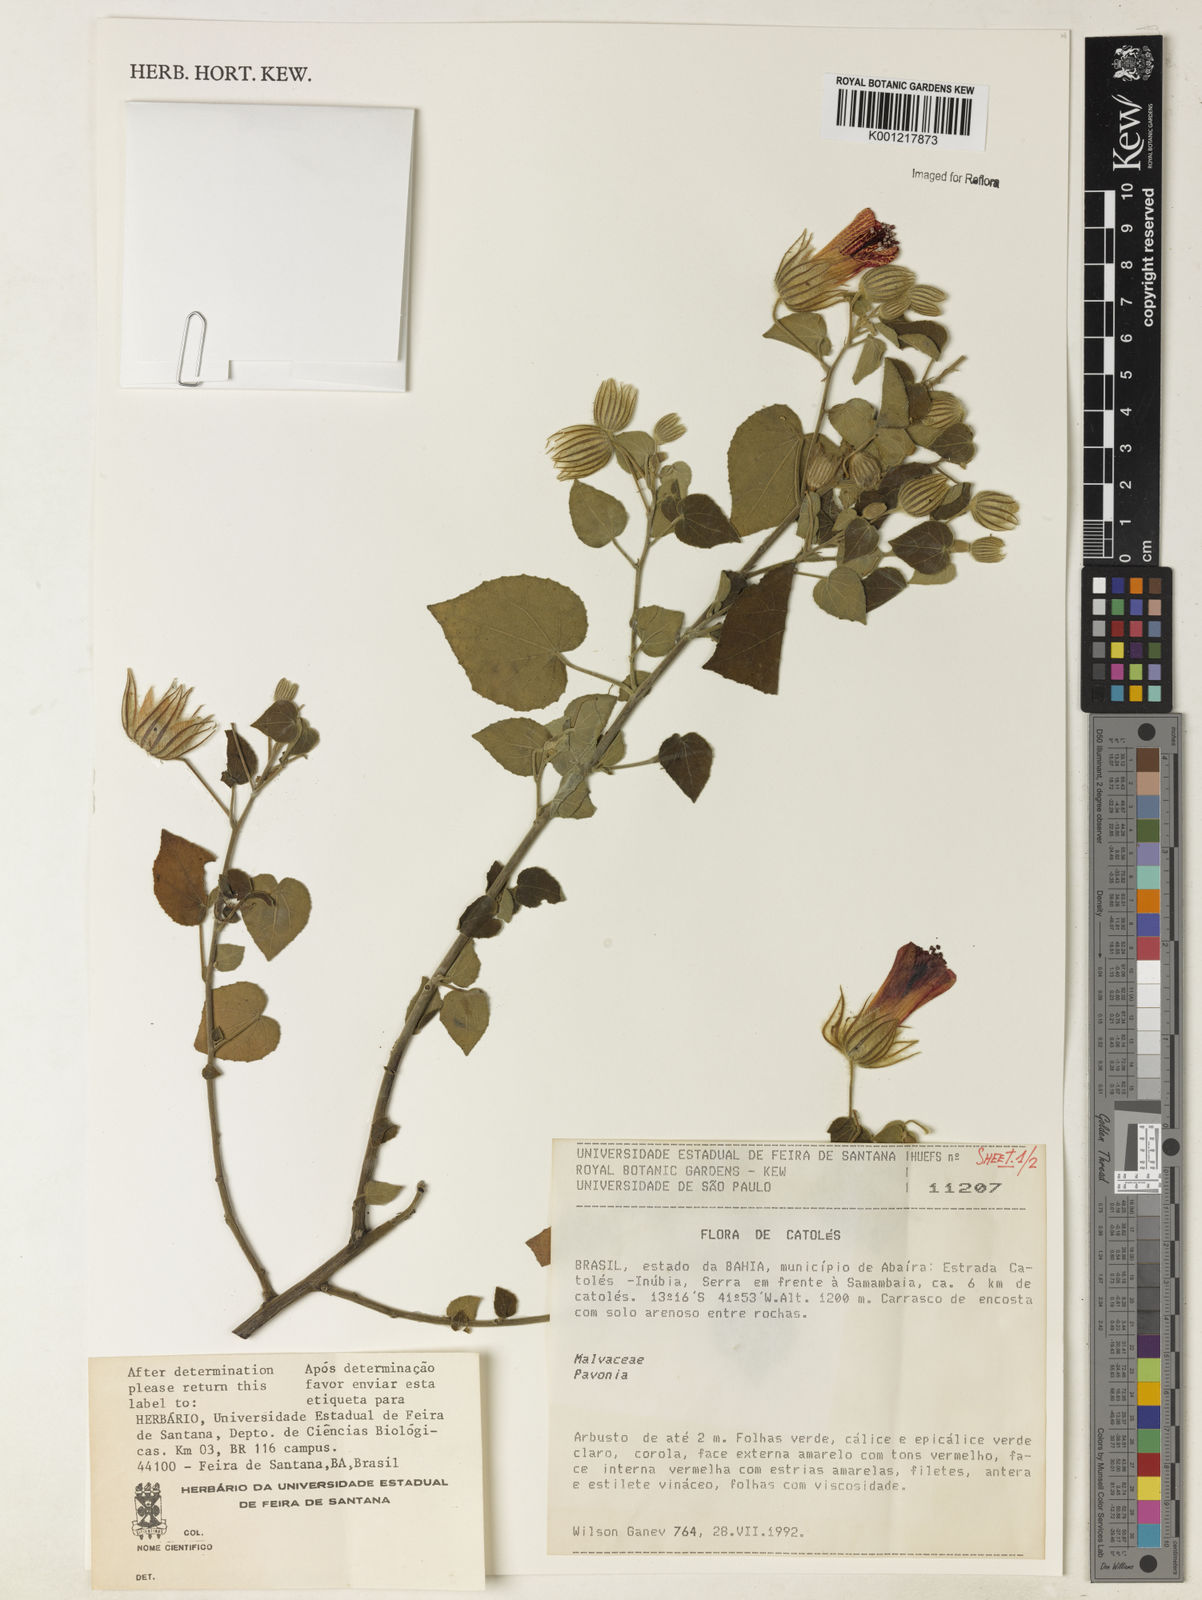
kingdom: Plantae
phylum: Tracheophyta
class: Magnoliopsida
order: Malvales
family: Malvaceae
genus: Pavonia
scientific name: Pavonia
